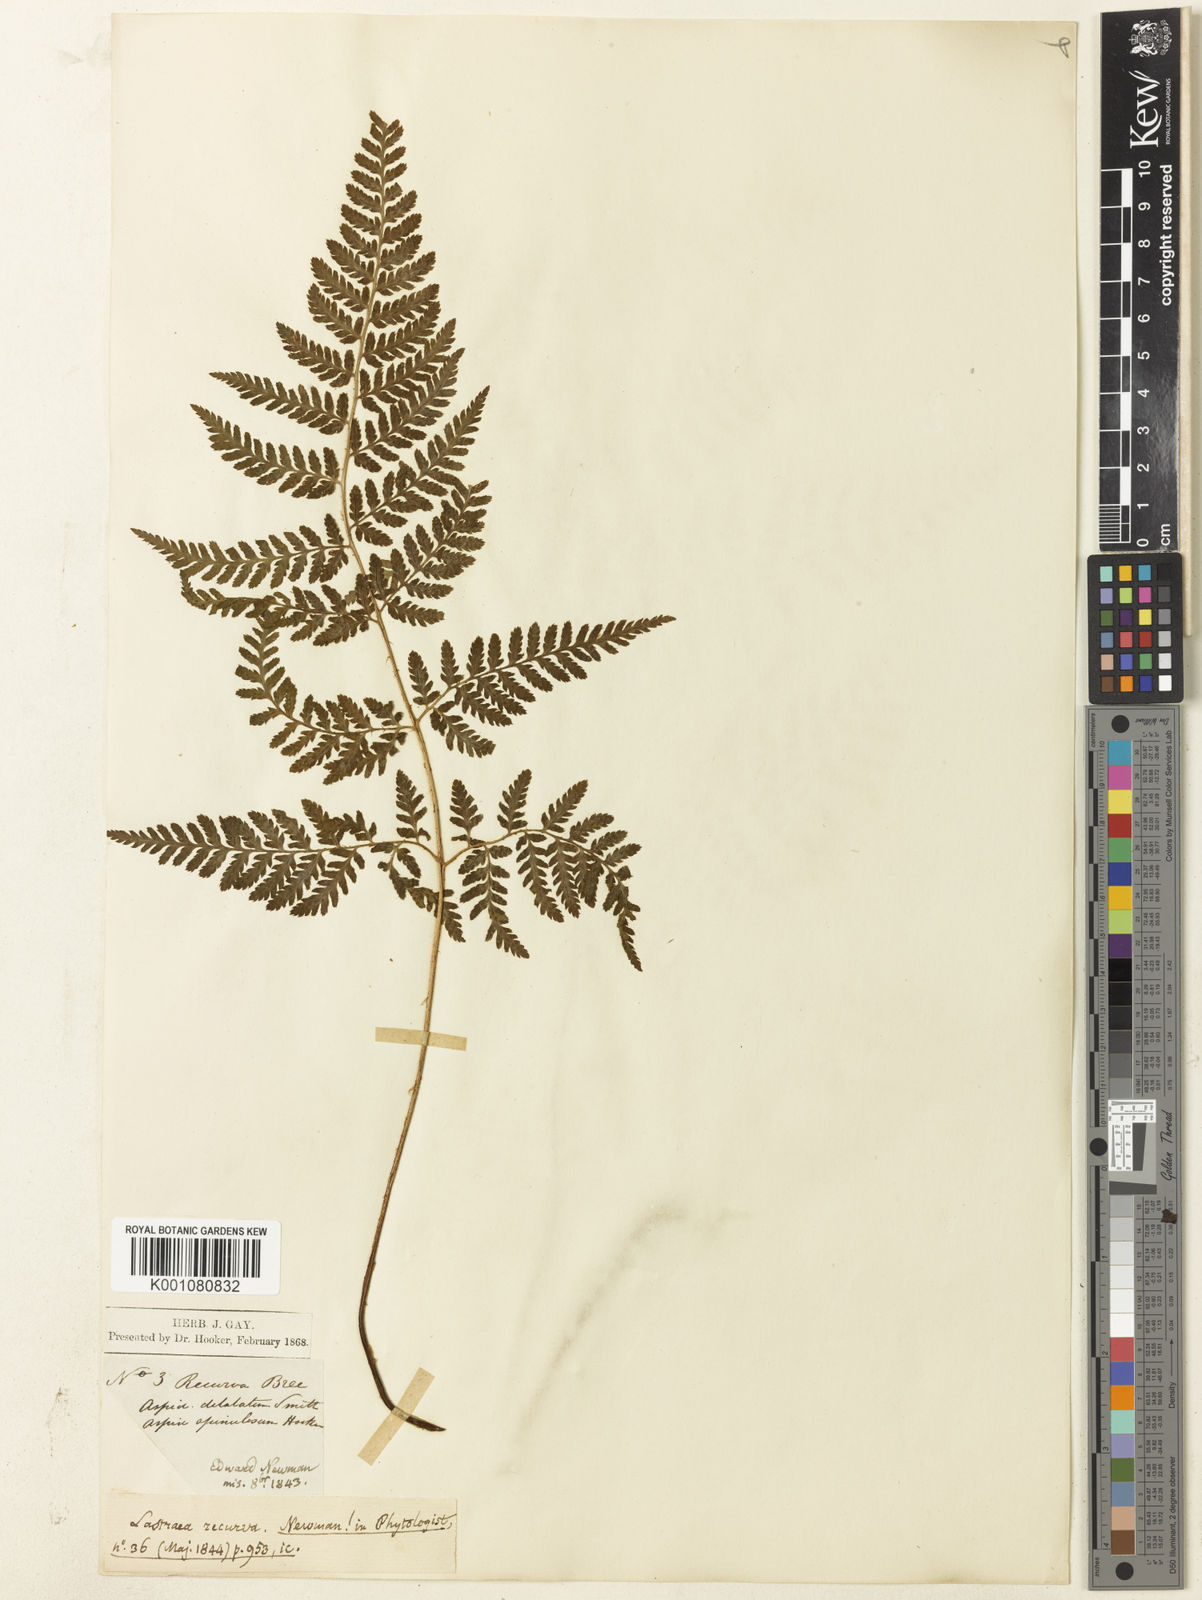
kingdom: Plantae
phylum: Tracheophyta
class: Polypodiopsida
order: Polypodiales
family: Dryopteridaceae
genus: Dryopteris
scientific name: Dryopteris aemula
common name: Hay-scented buckler-fern
